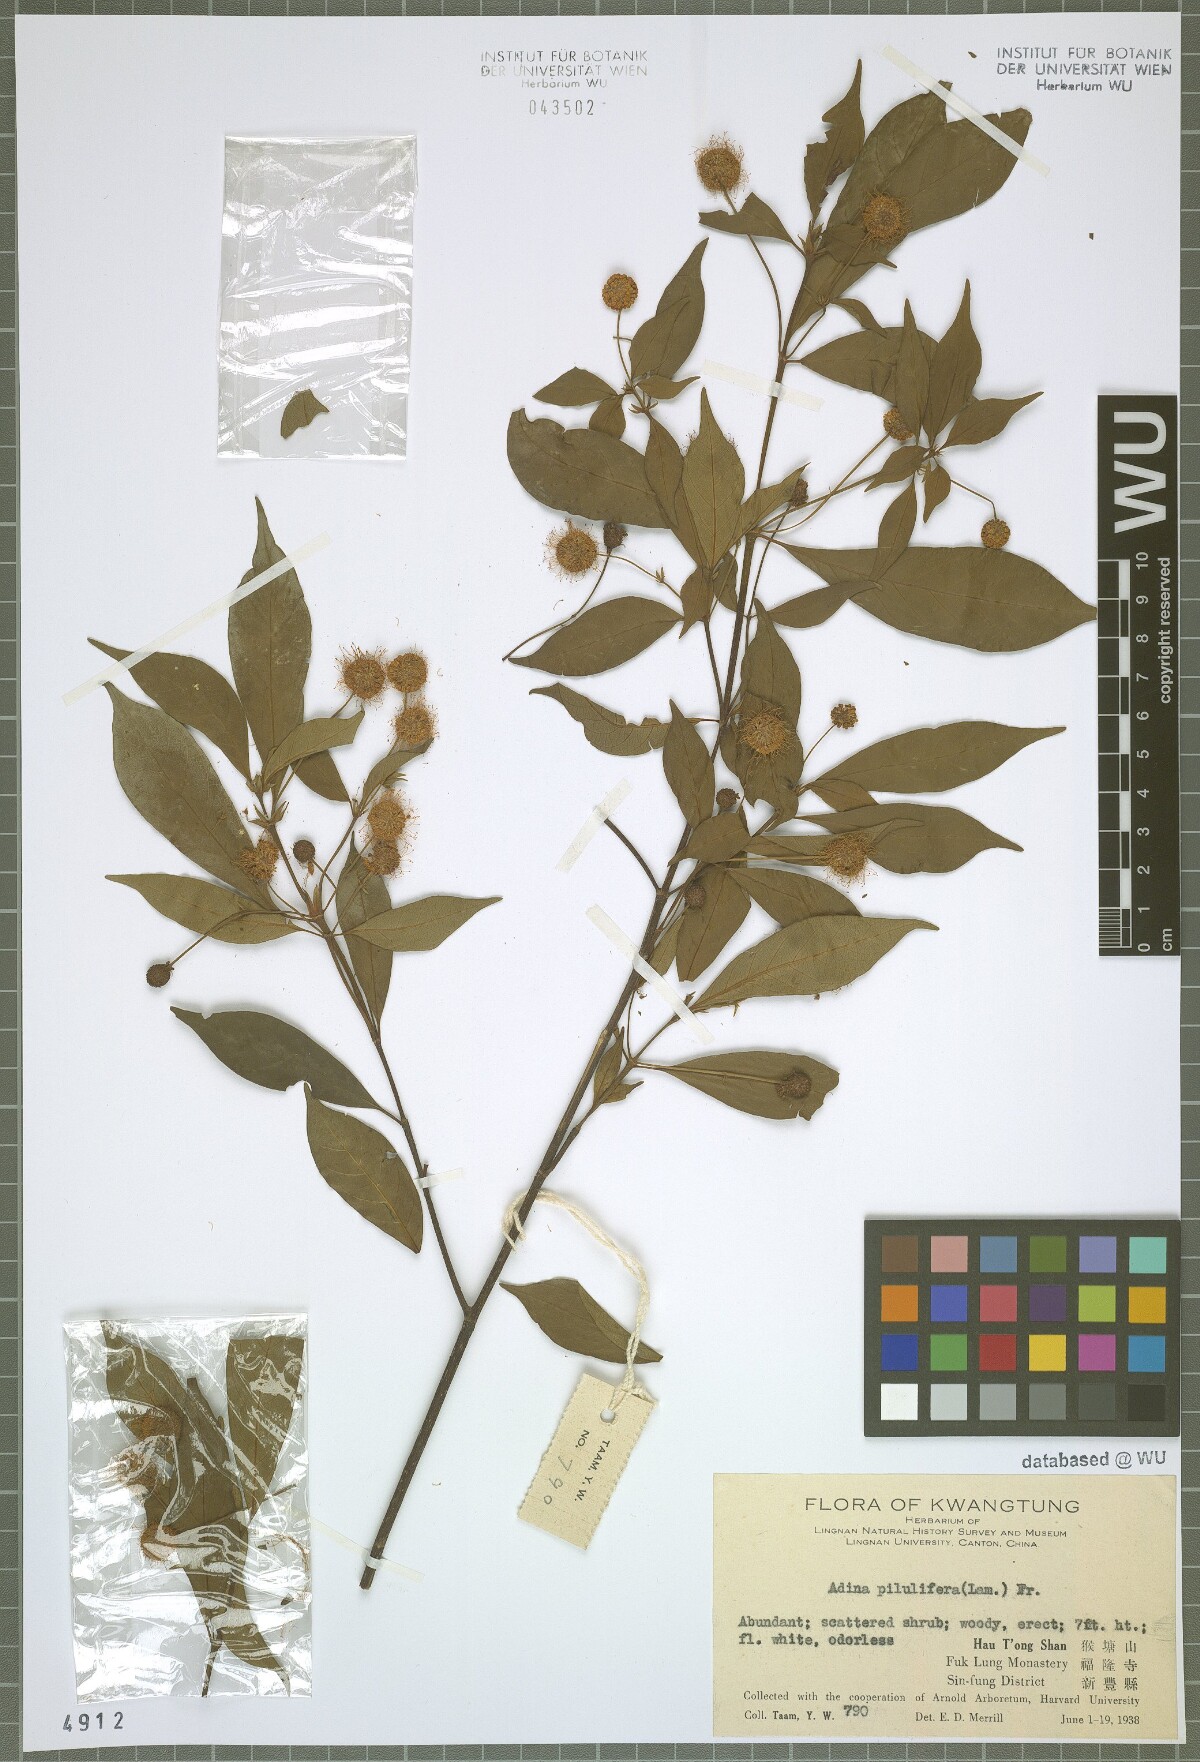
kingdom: Plantae
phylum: Tracheophyta
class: Magnoliopsida
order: Gentianales
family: Rubiaceae
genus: Adina
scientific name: Adina pilulifera
